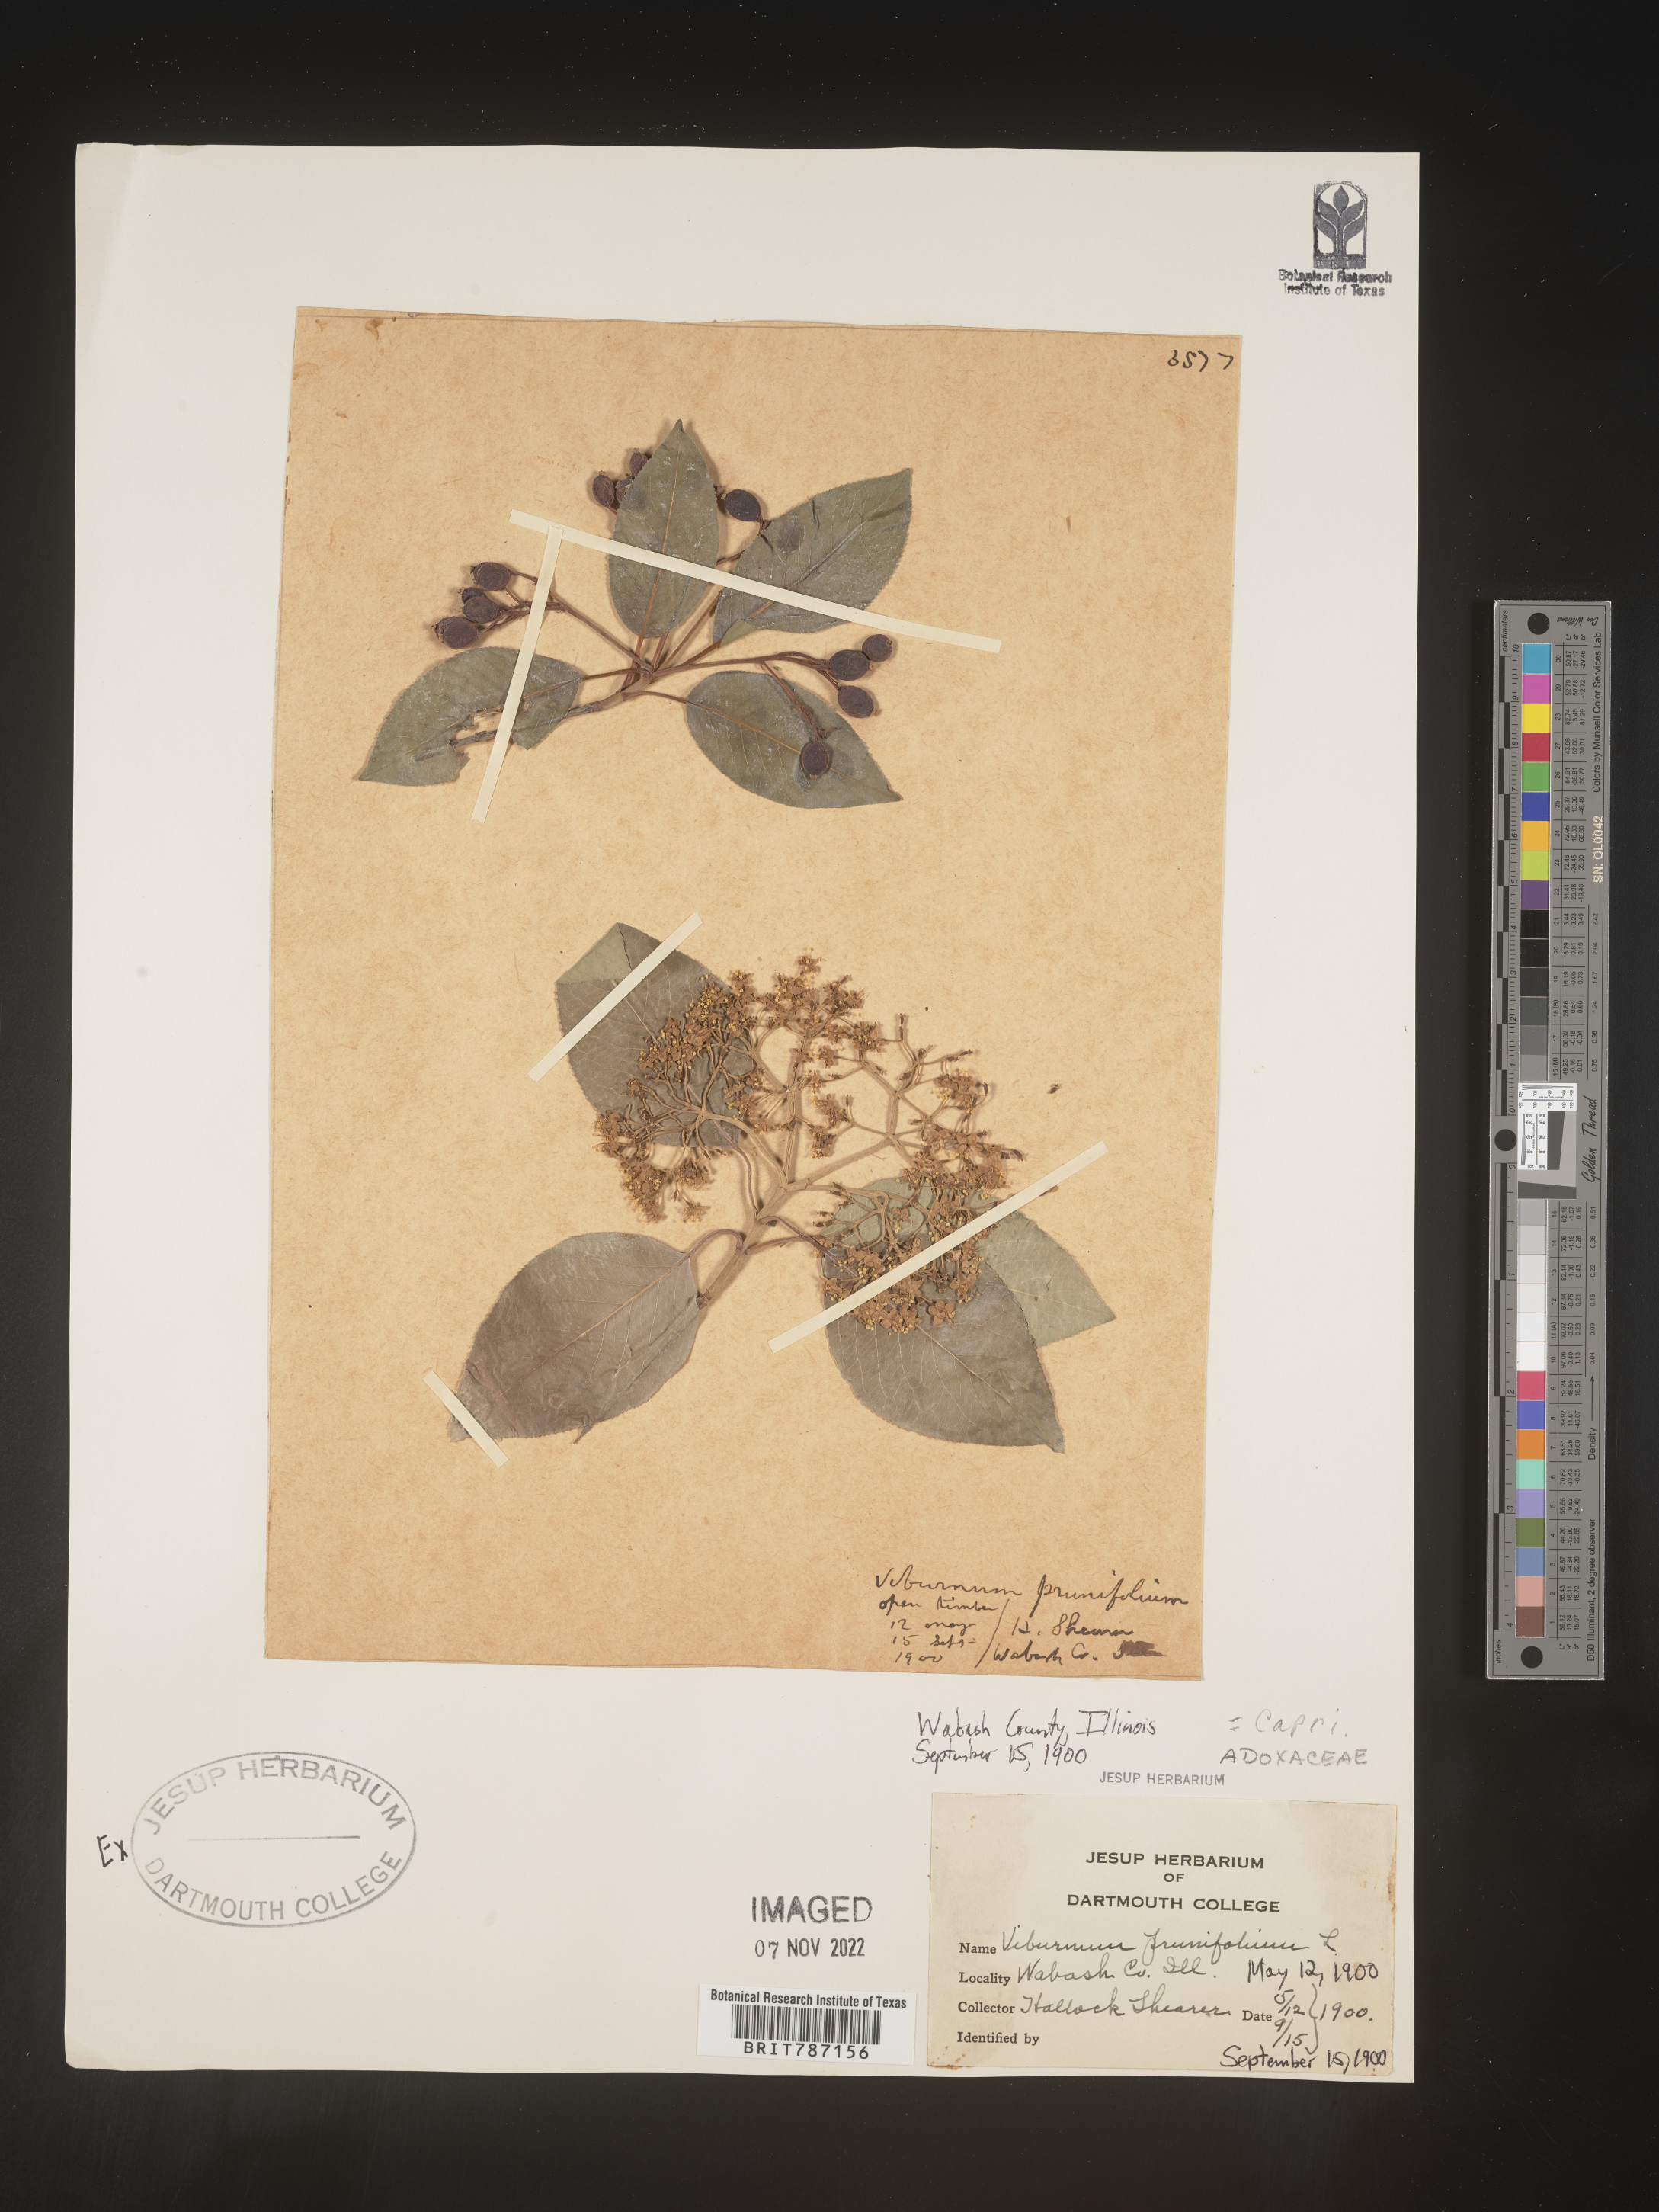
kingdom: Plantae
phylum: Tracheophyta
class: Magnoliopsida
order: Dipsacales
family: Viburnaceae
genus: Viburnum
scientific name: Viburnum prunifolium
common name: Black haw
